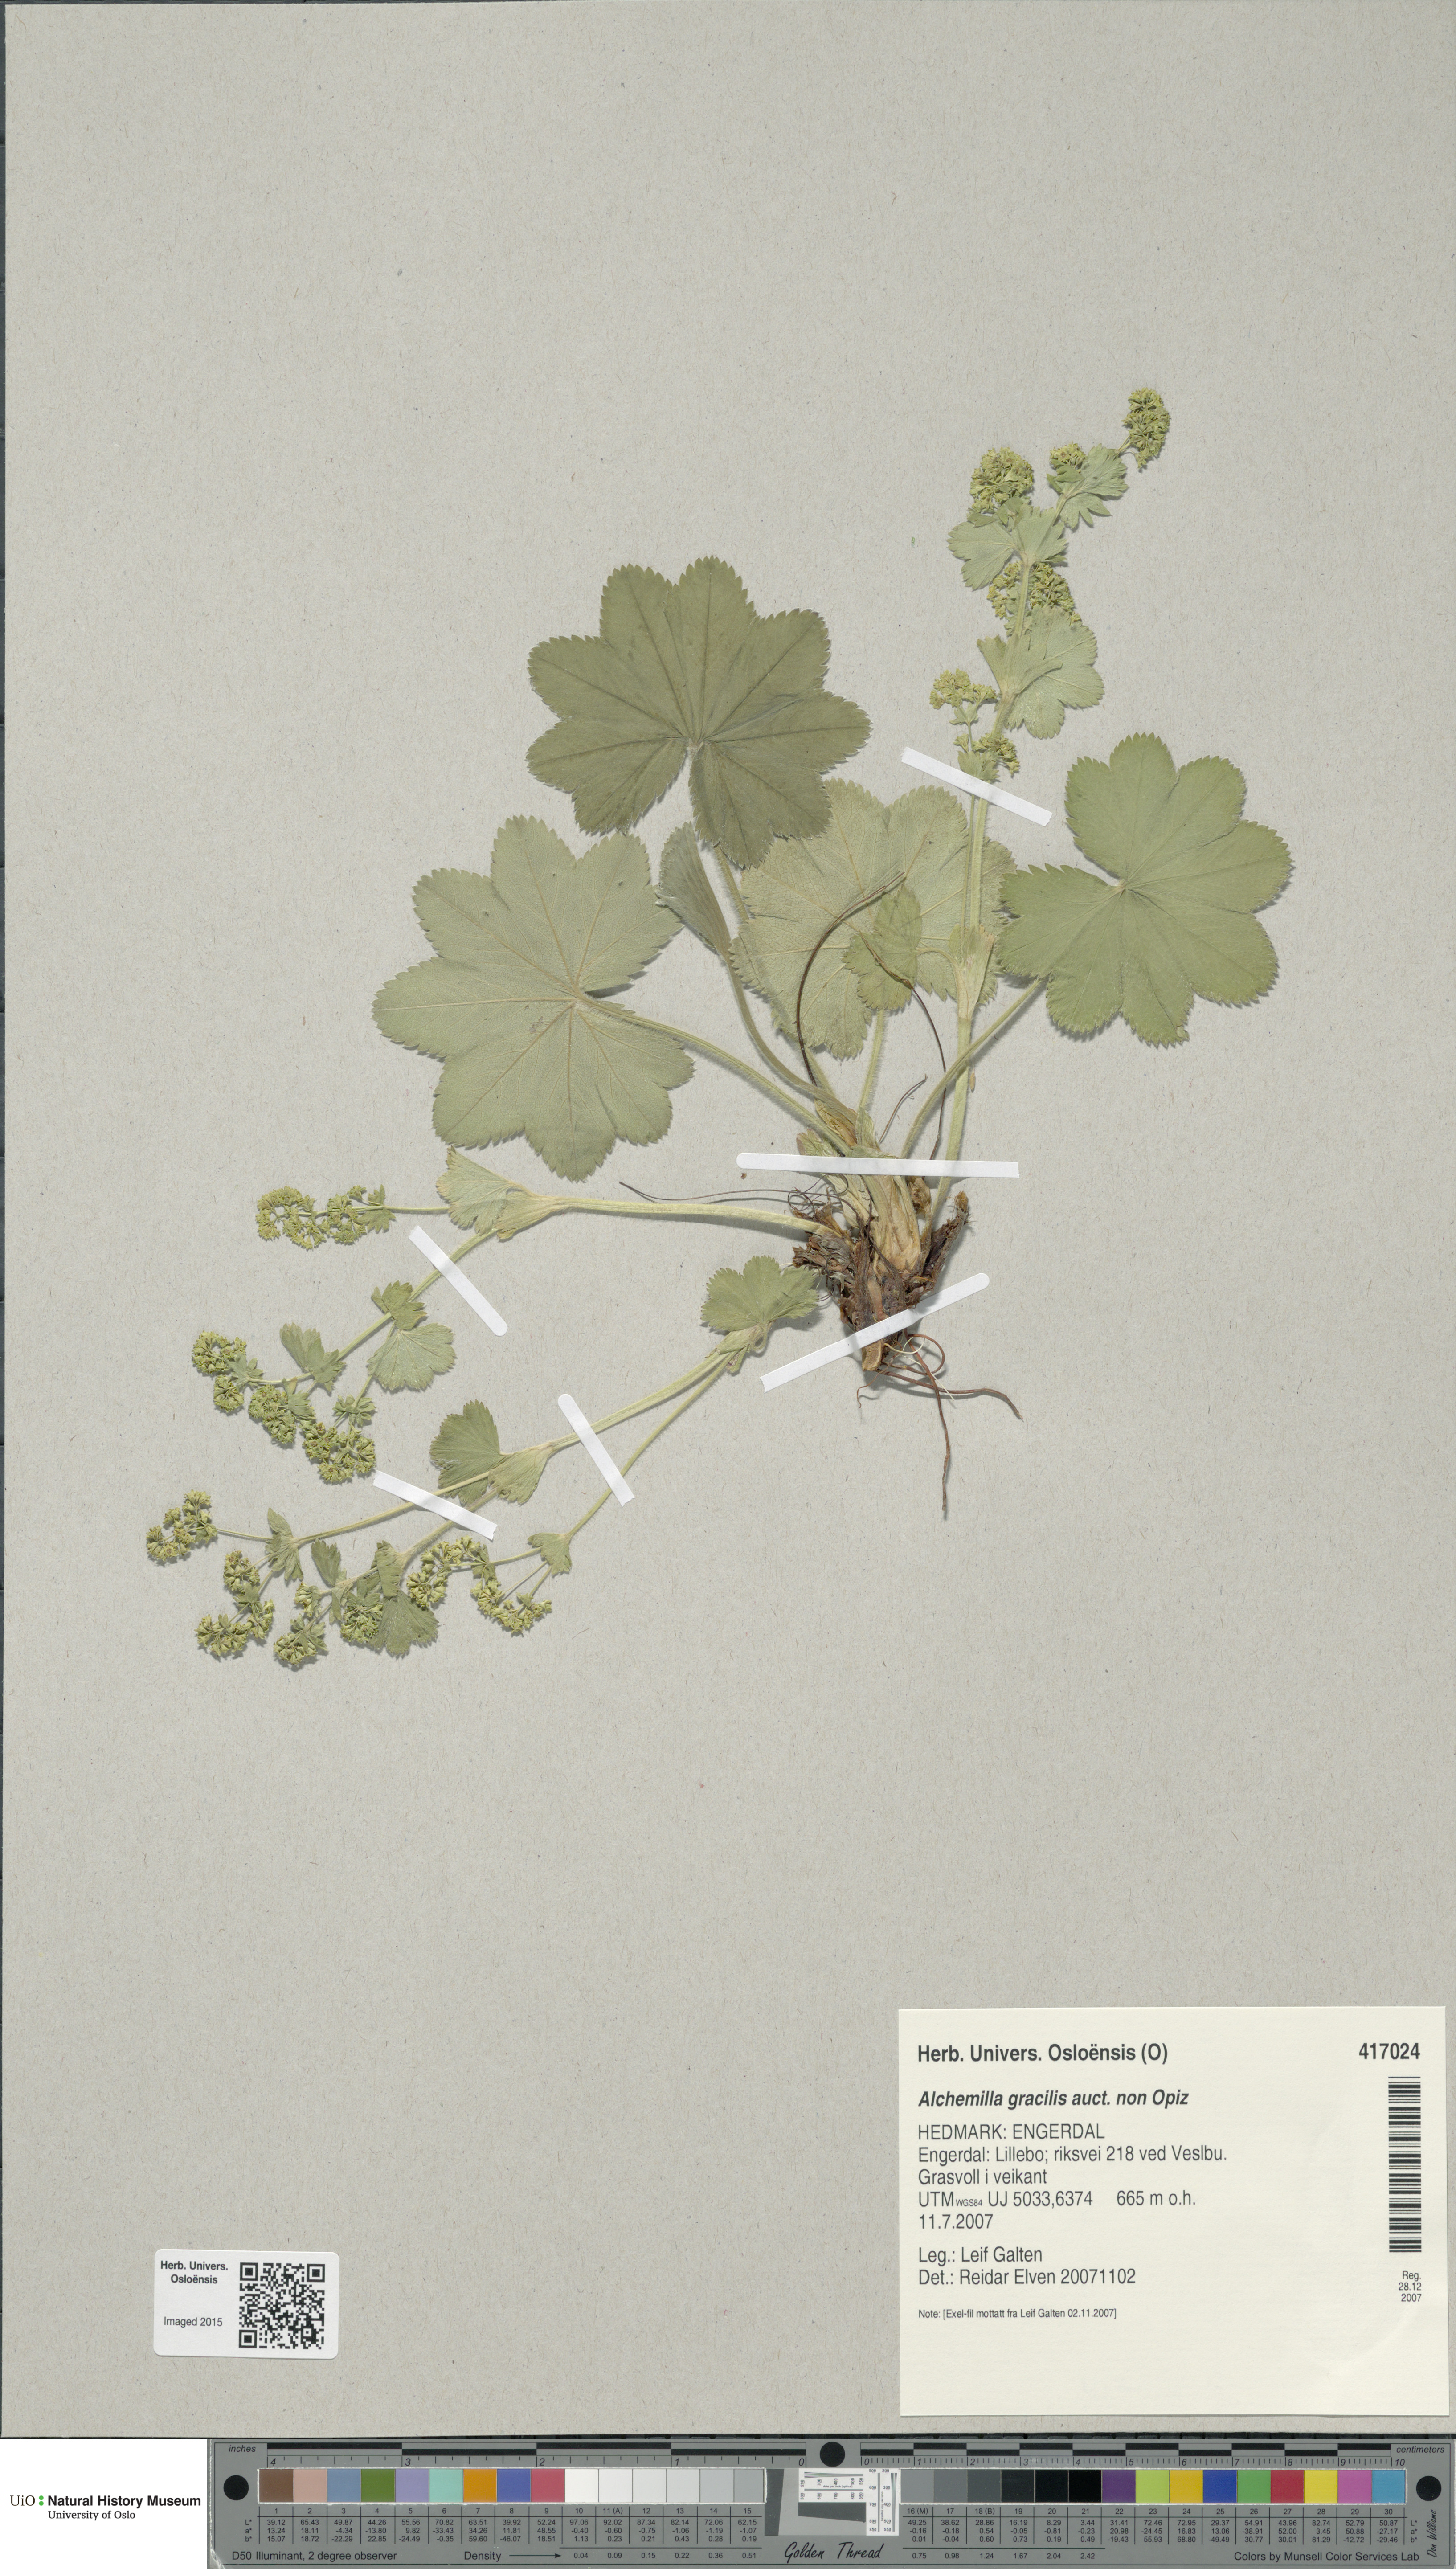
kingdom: Plantae
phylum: Tracheophyta
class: Magnoliopsida
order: Rosales
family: Rosaceae
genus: Alchemilla
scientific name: Alchemilla micans
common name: Gleaming lady's mantle
